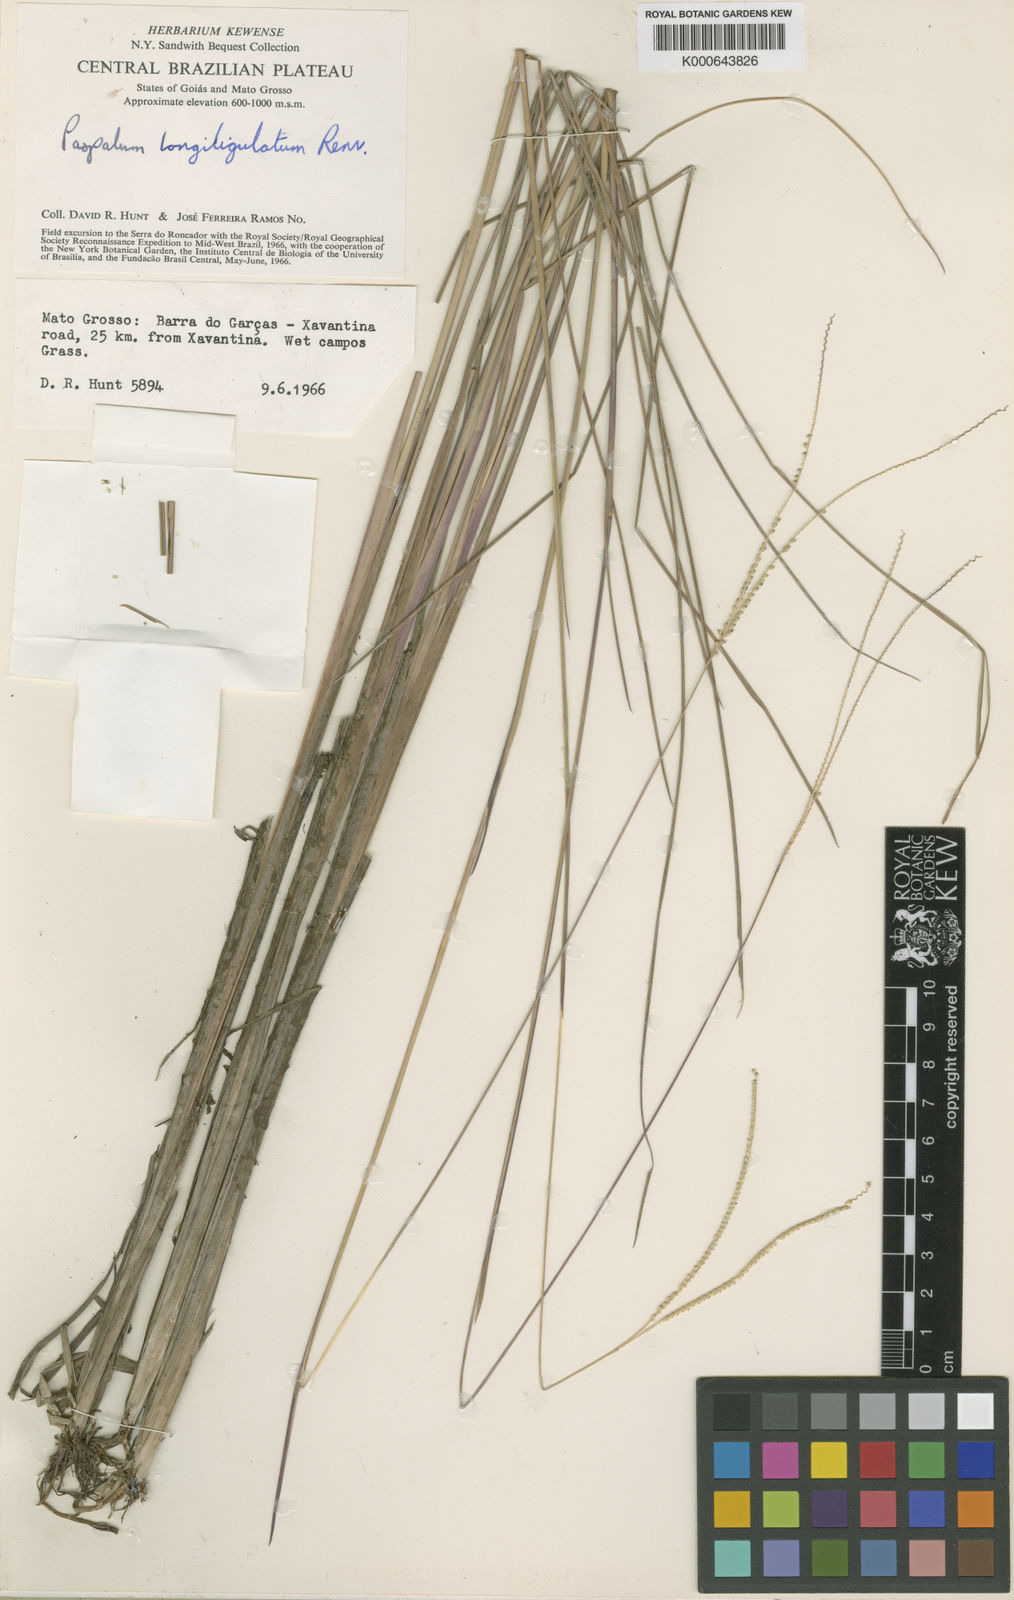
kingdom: Plantae
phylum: Tracheophyta
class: Liliopsida
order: Poales
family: Poaceae
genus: Paspalum
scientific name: Paspalum nudatum
